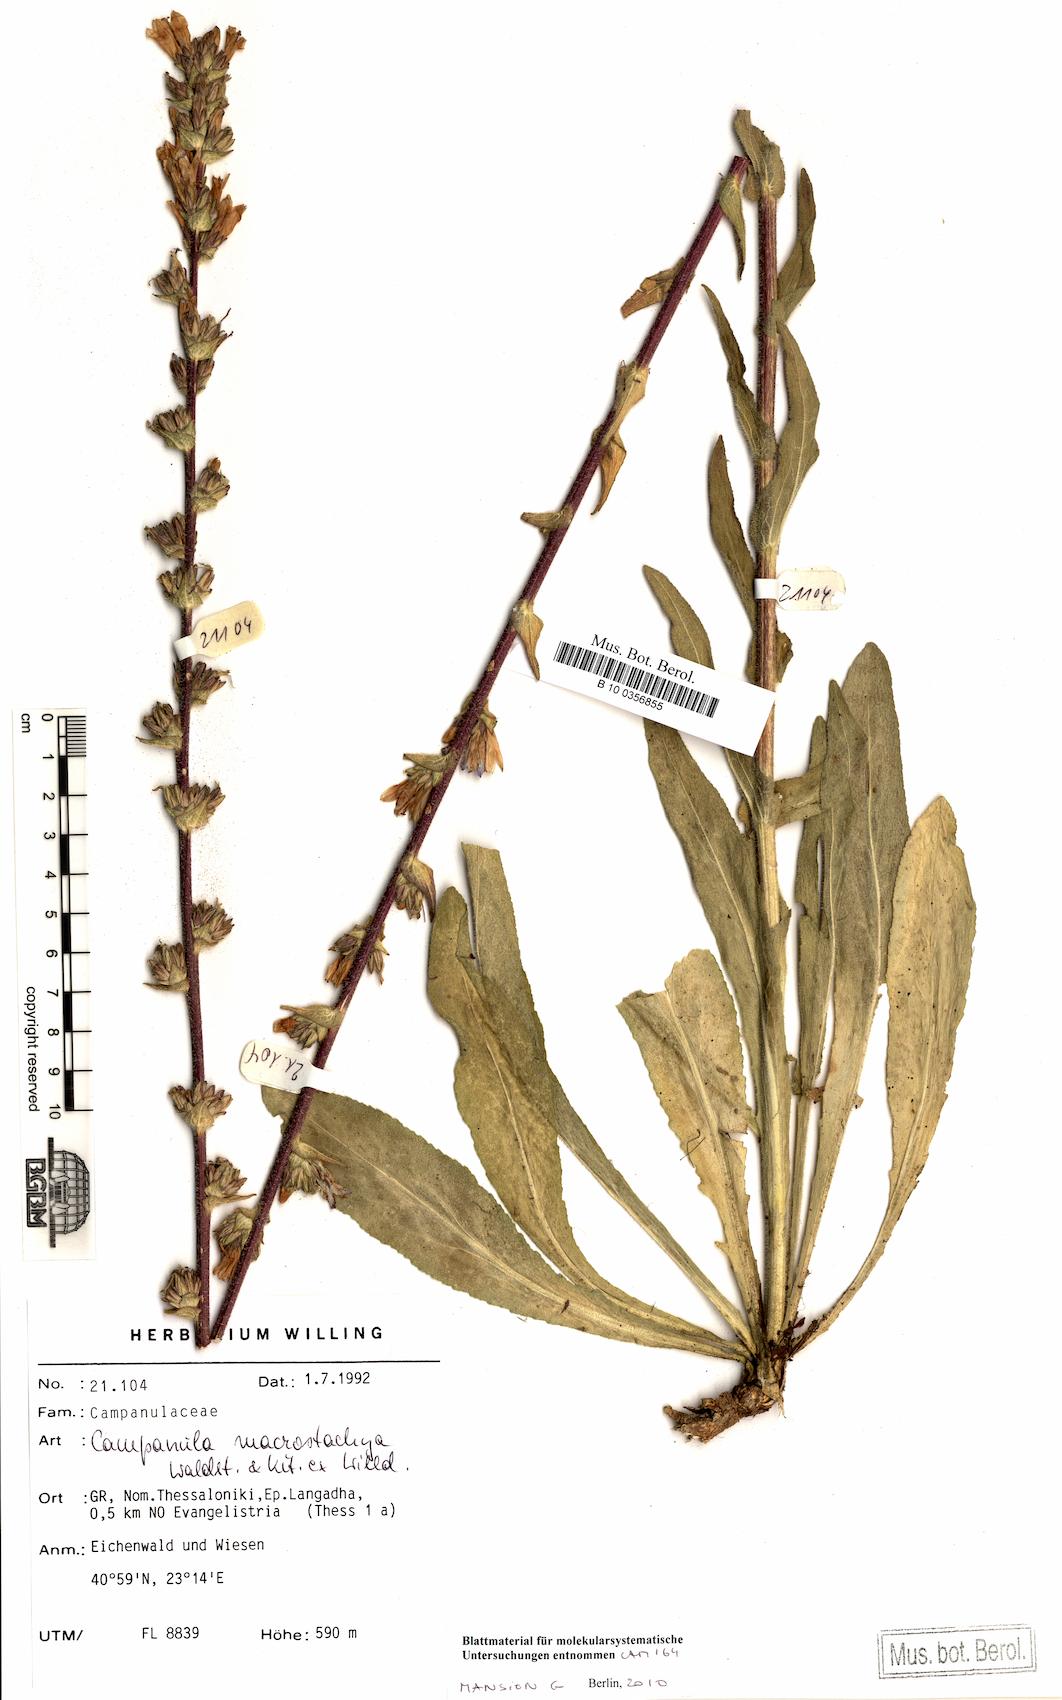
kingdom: Plantae
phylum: Tracheophyta
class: Magnoliopsida
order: Asterales
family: Campanulaceae
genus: Campanula
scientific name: Campanula macrostachya
